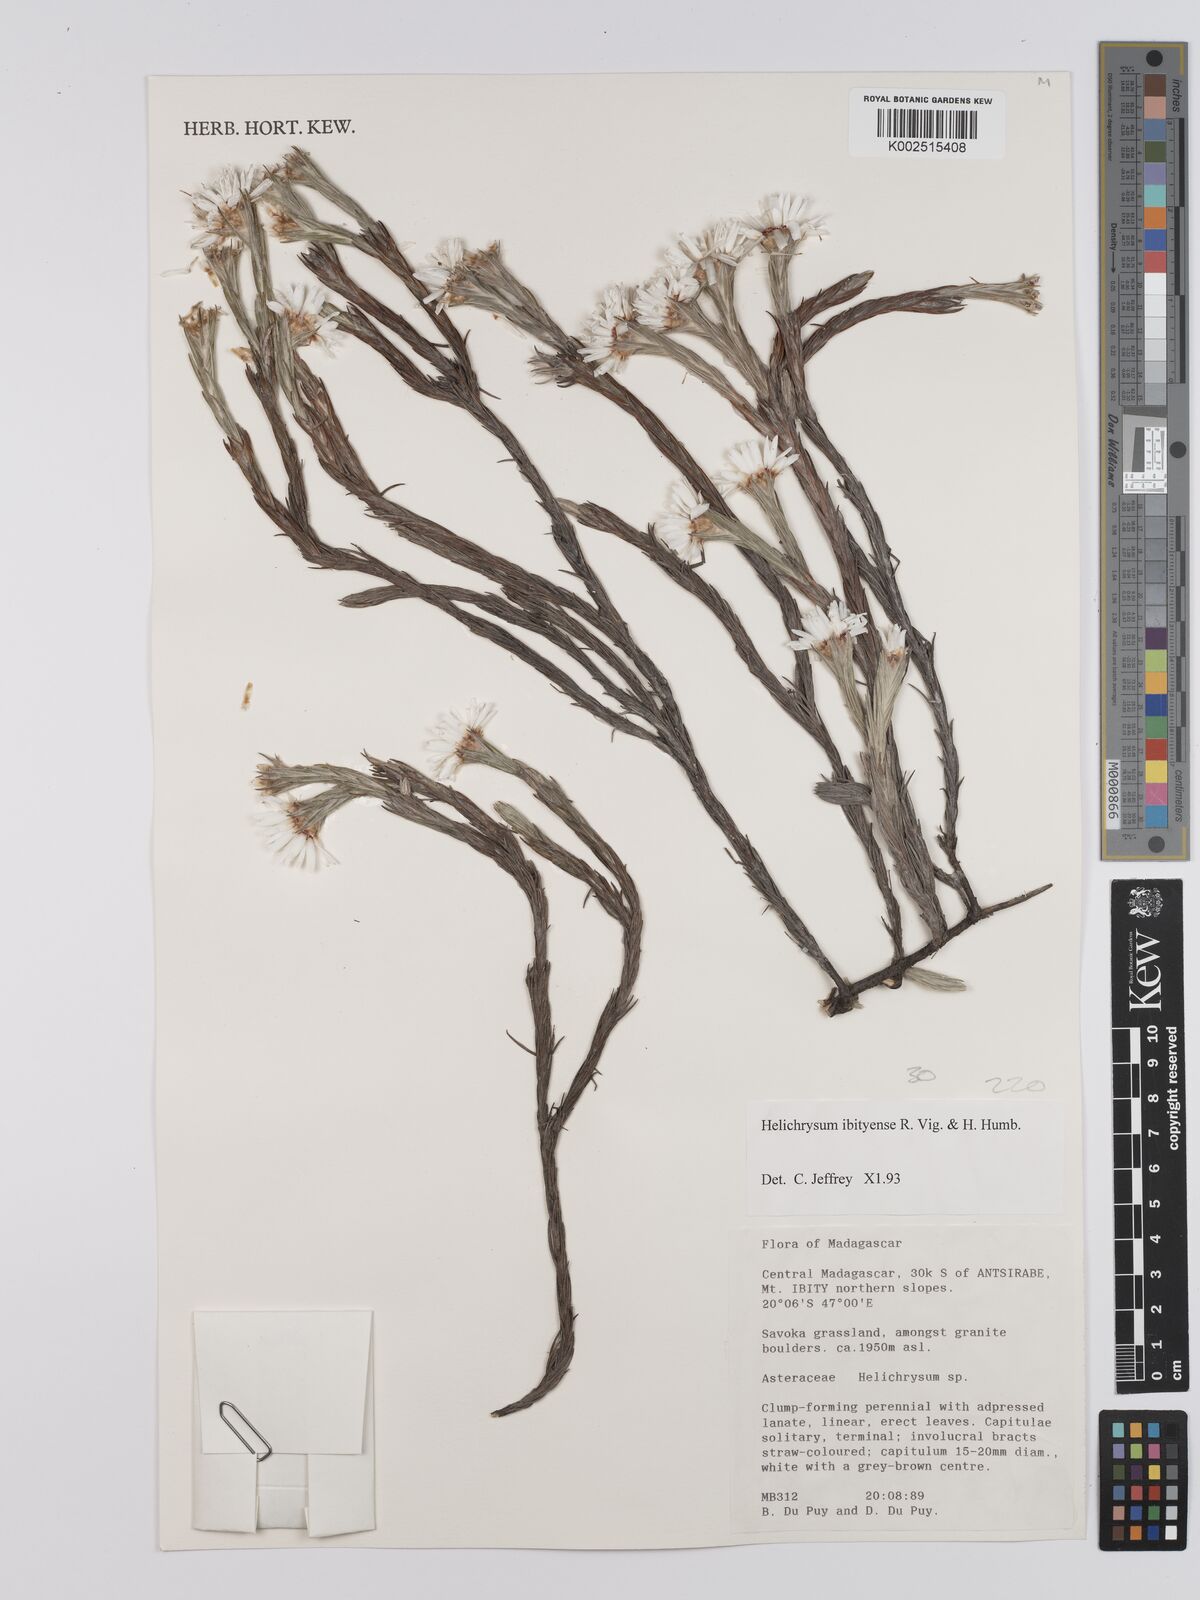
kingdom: Plantae
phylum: Tracheophyta
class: Magnoliopsida
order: Asterales
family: Asteraceae
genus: Helichrysum
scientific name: Helichrysum ibityense
